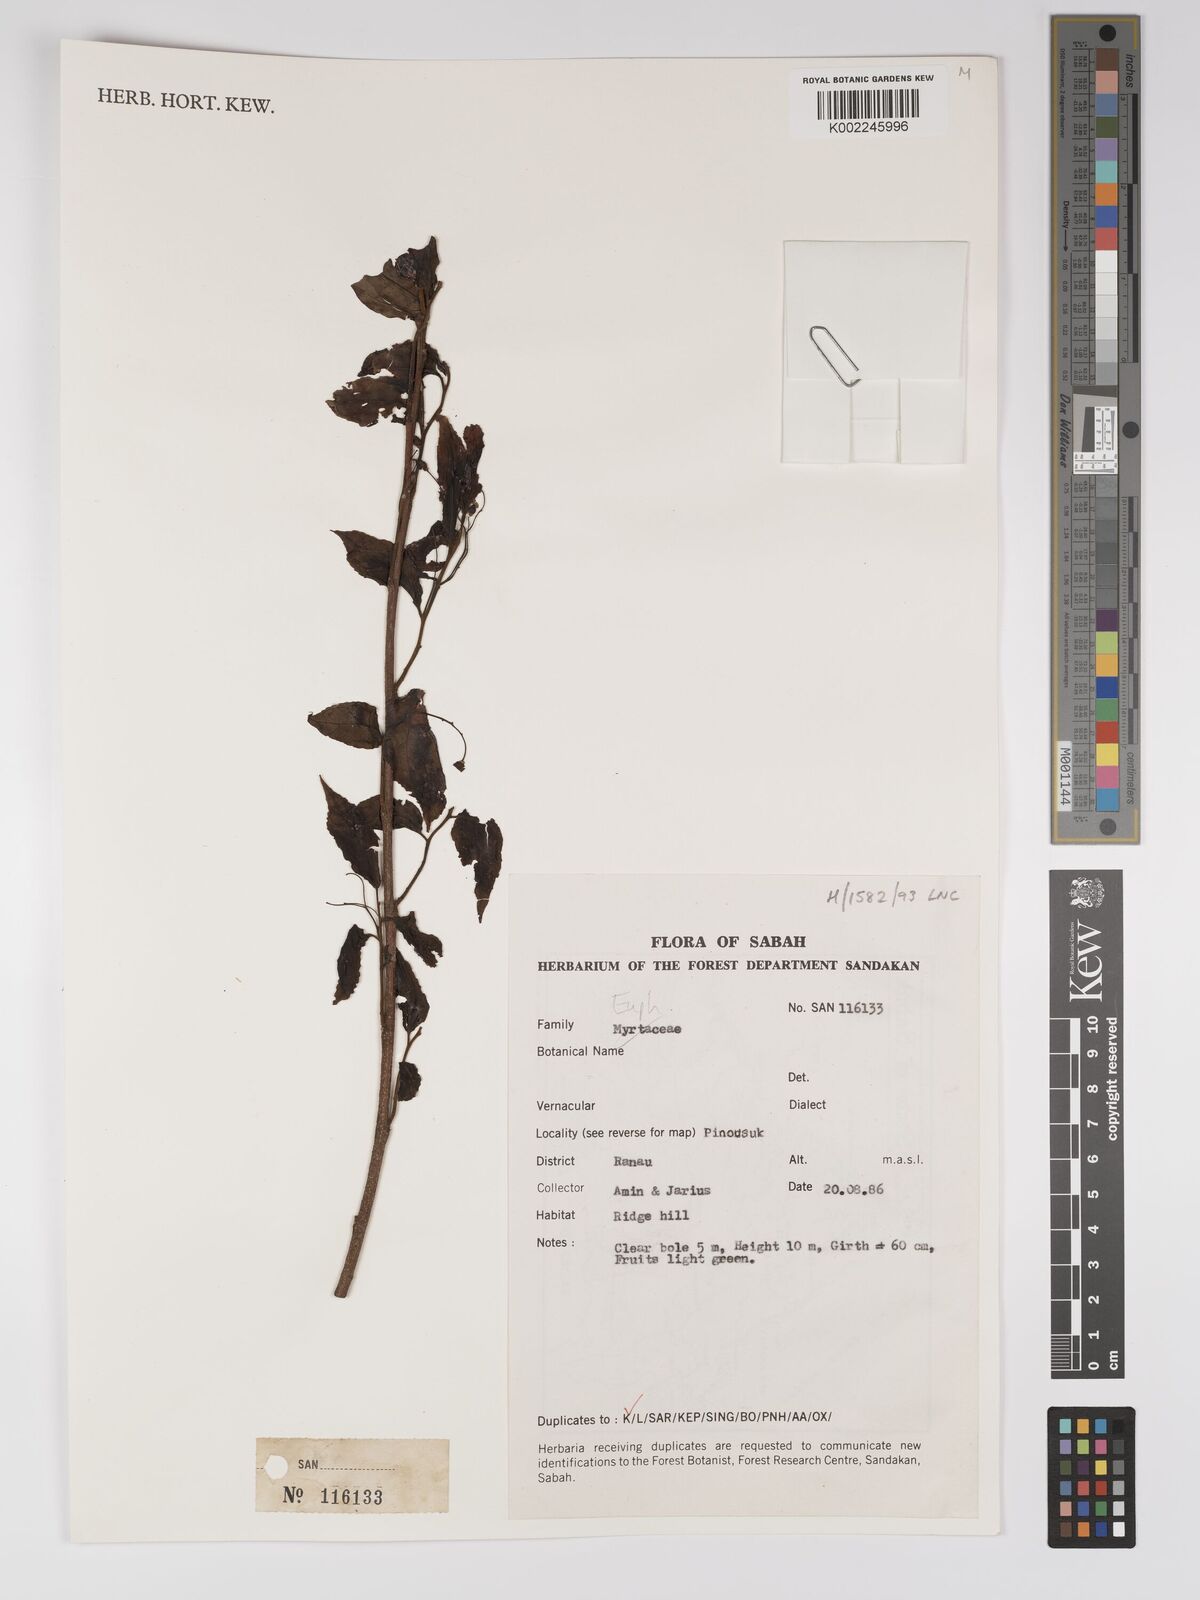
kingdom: Plantae
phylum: Tracheophyta
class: Magnoliopsida
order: Malpighiales
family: Euphorbiaceae
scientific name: Euphorbiaceae
